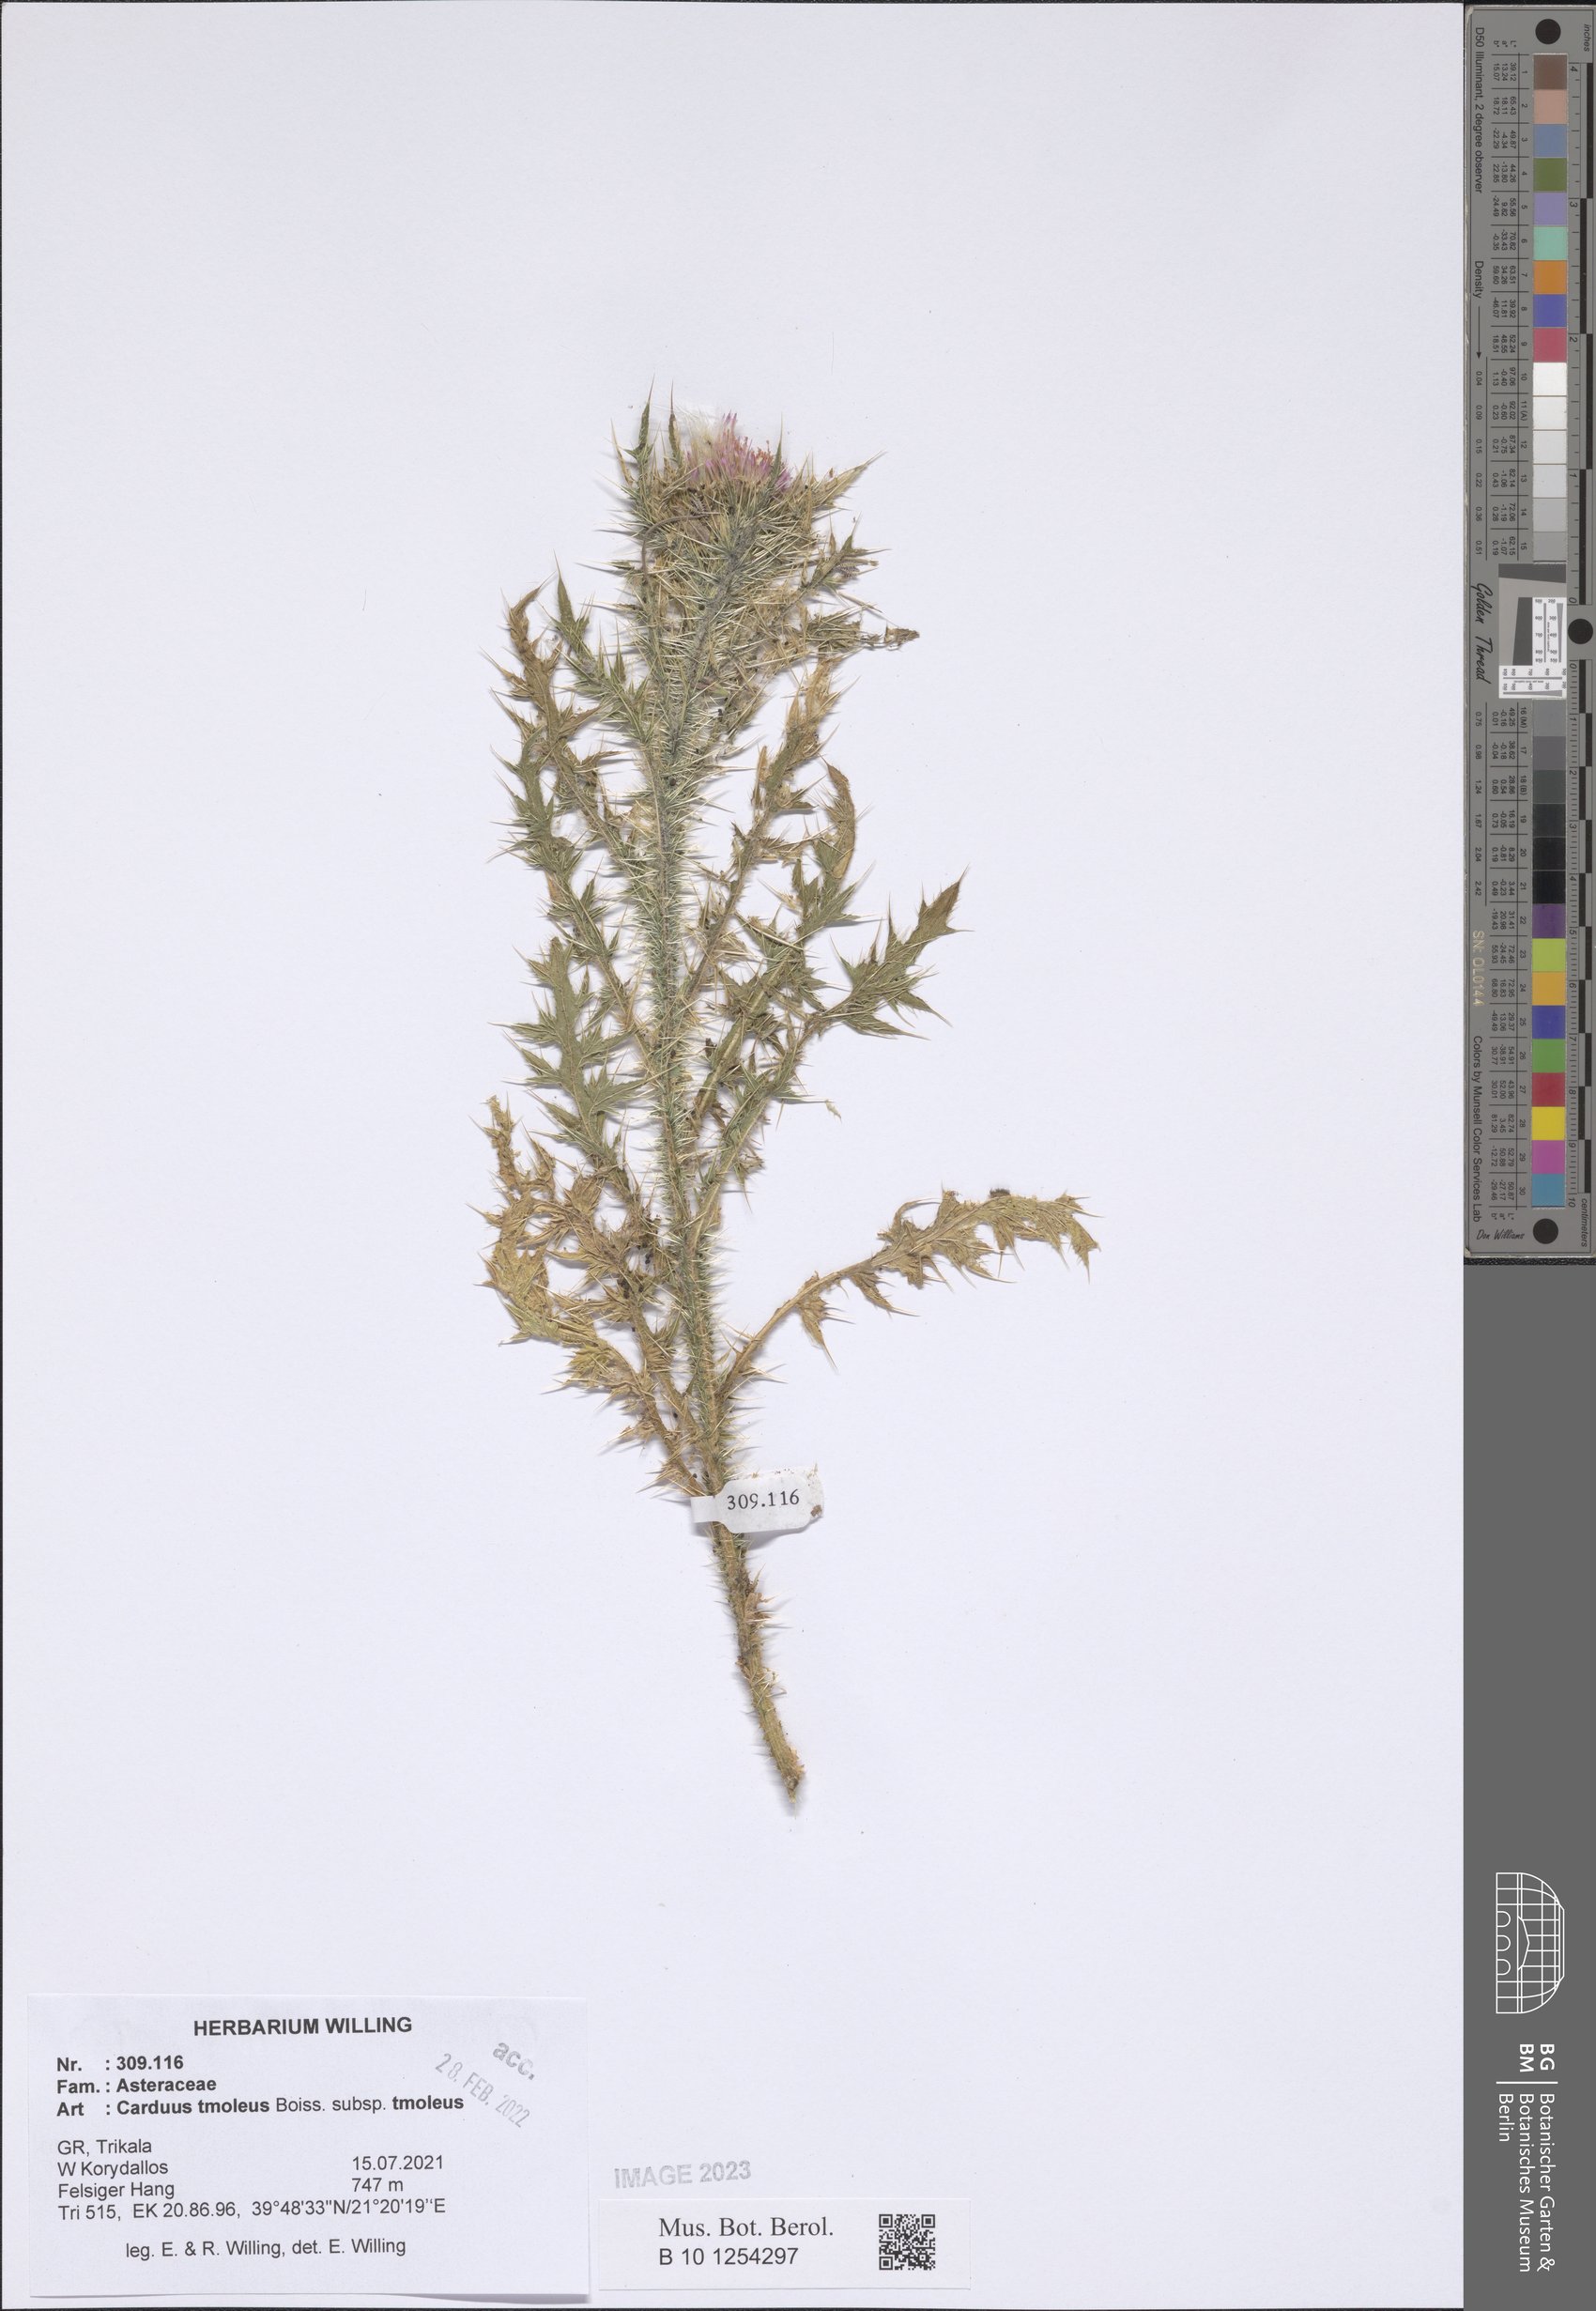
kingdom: Plantae
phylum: Tracheophyta
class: Magnoliopsida
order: Asterales
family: Asteraceae
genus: Carduus
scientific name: Carduus tmoleus
